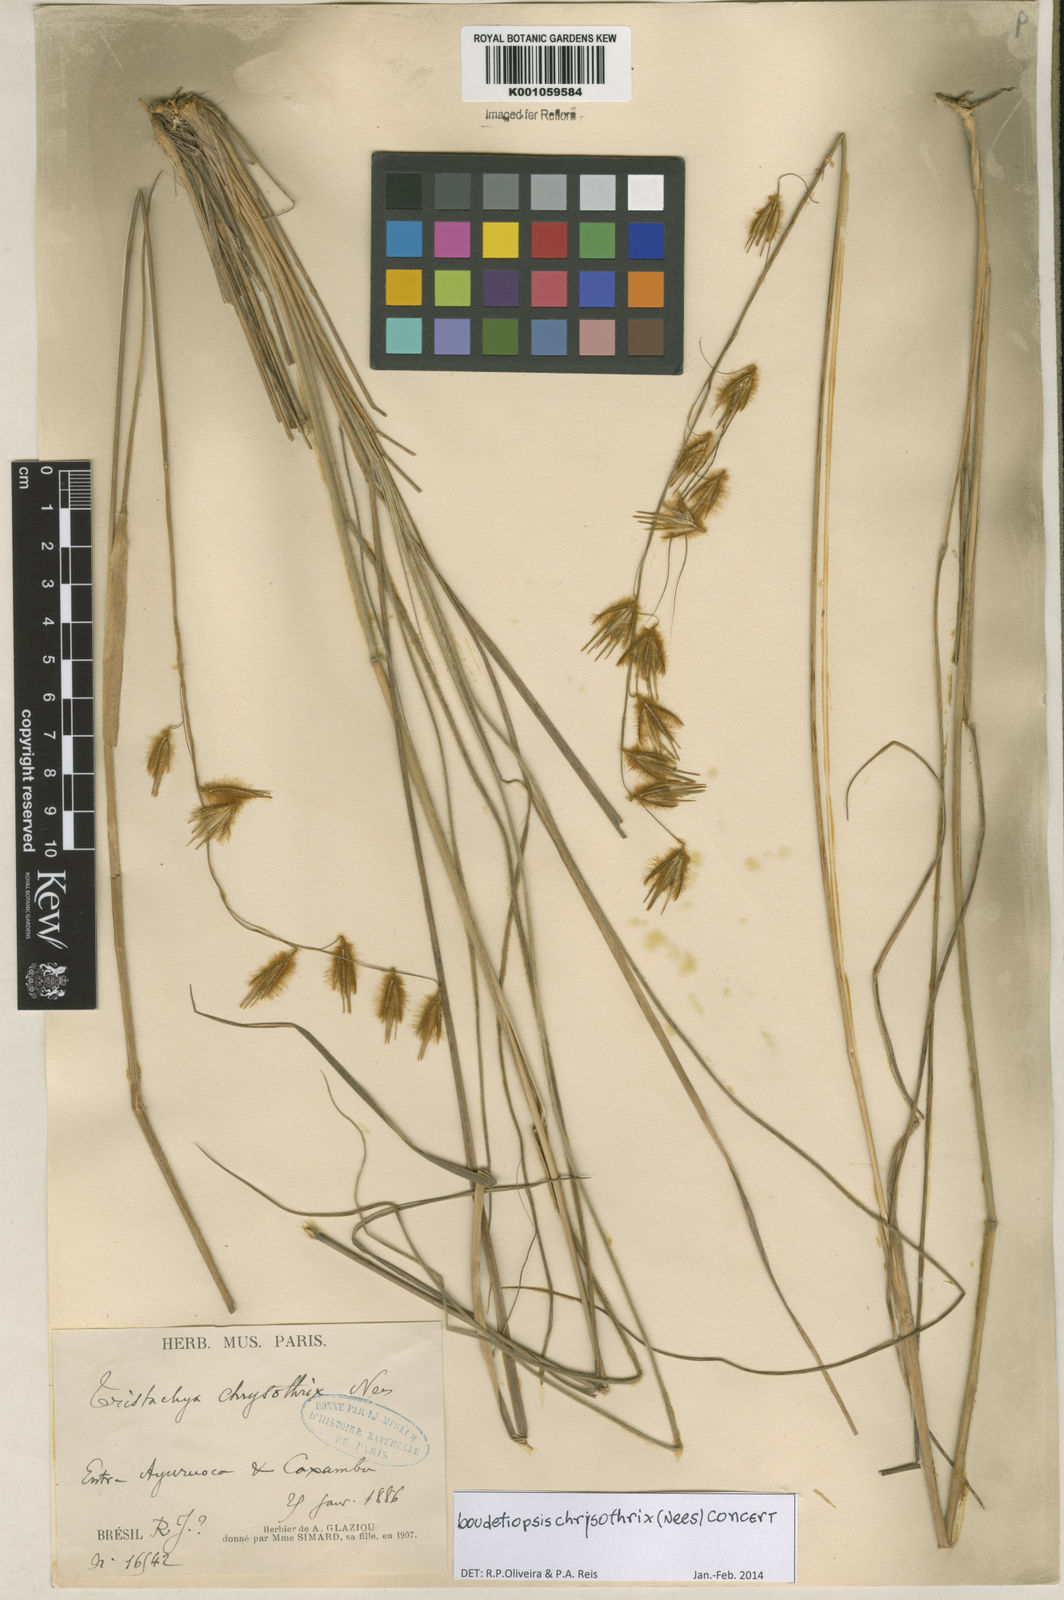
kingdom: Plantae
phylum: Tracheophyta
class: Liliopsida
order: Poales
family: Poaceae
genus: Loudetiopsis
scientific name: Loudetiopsis chrysothrix
